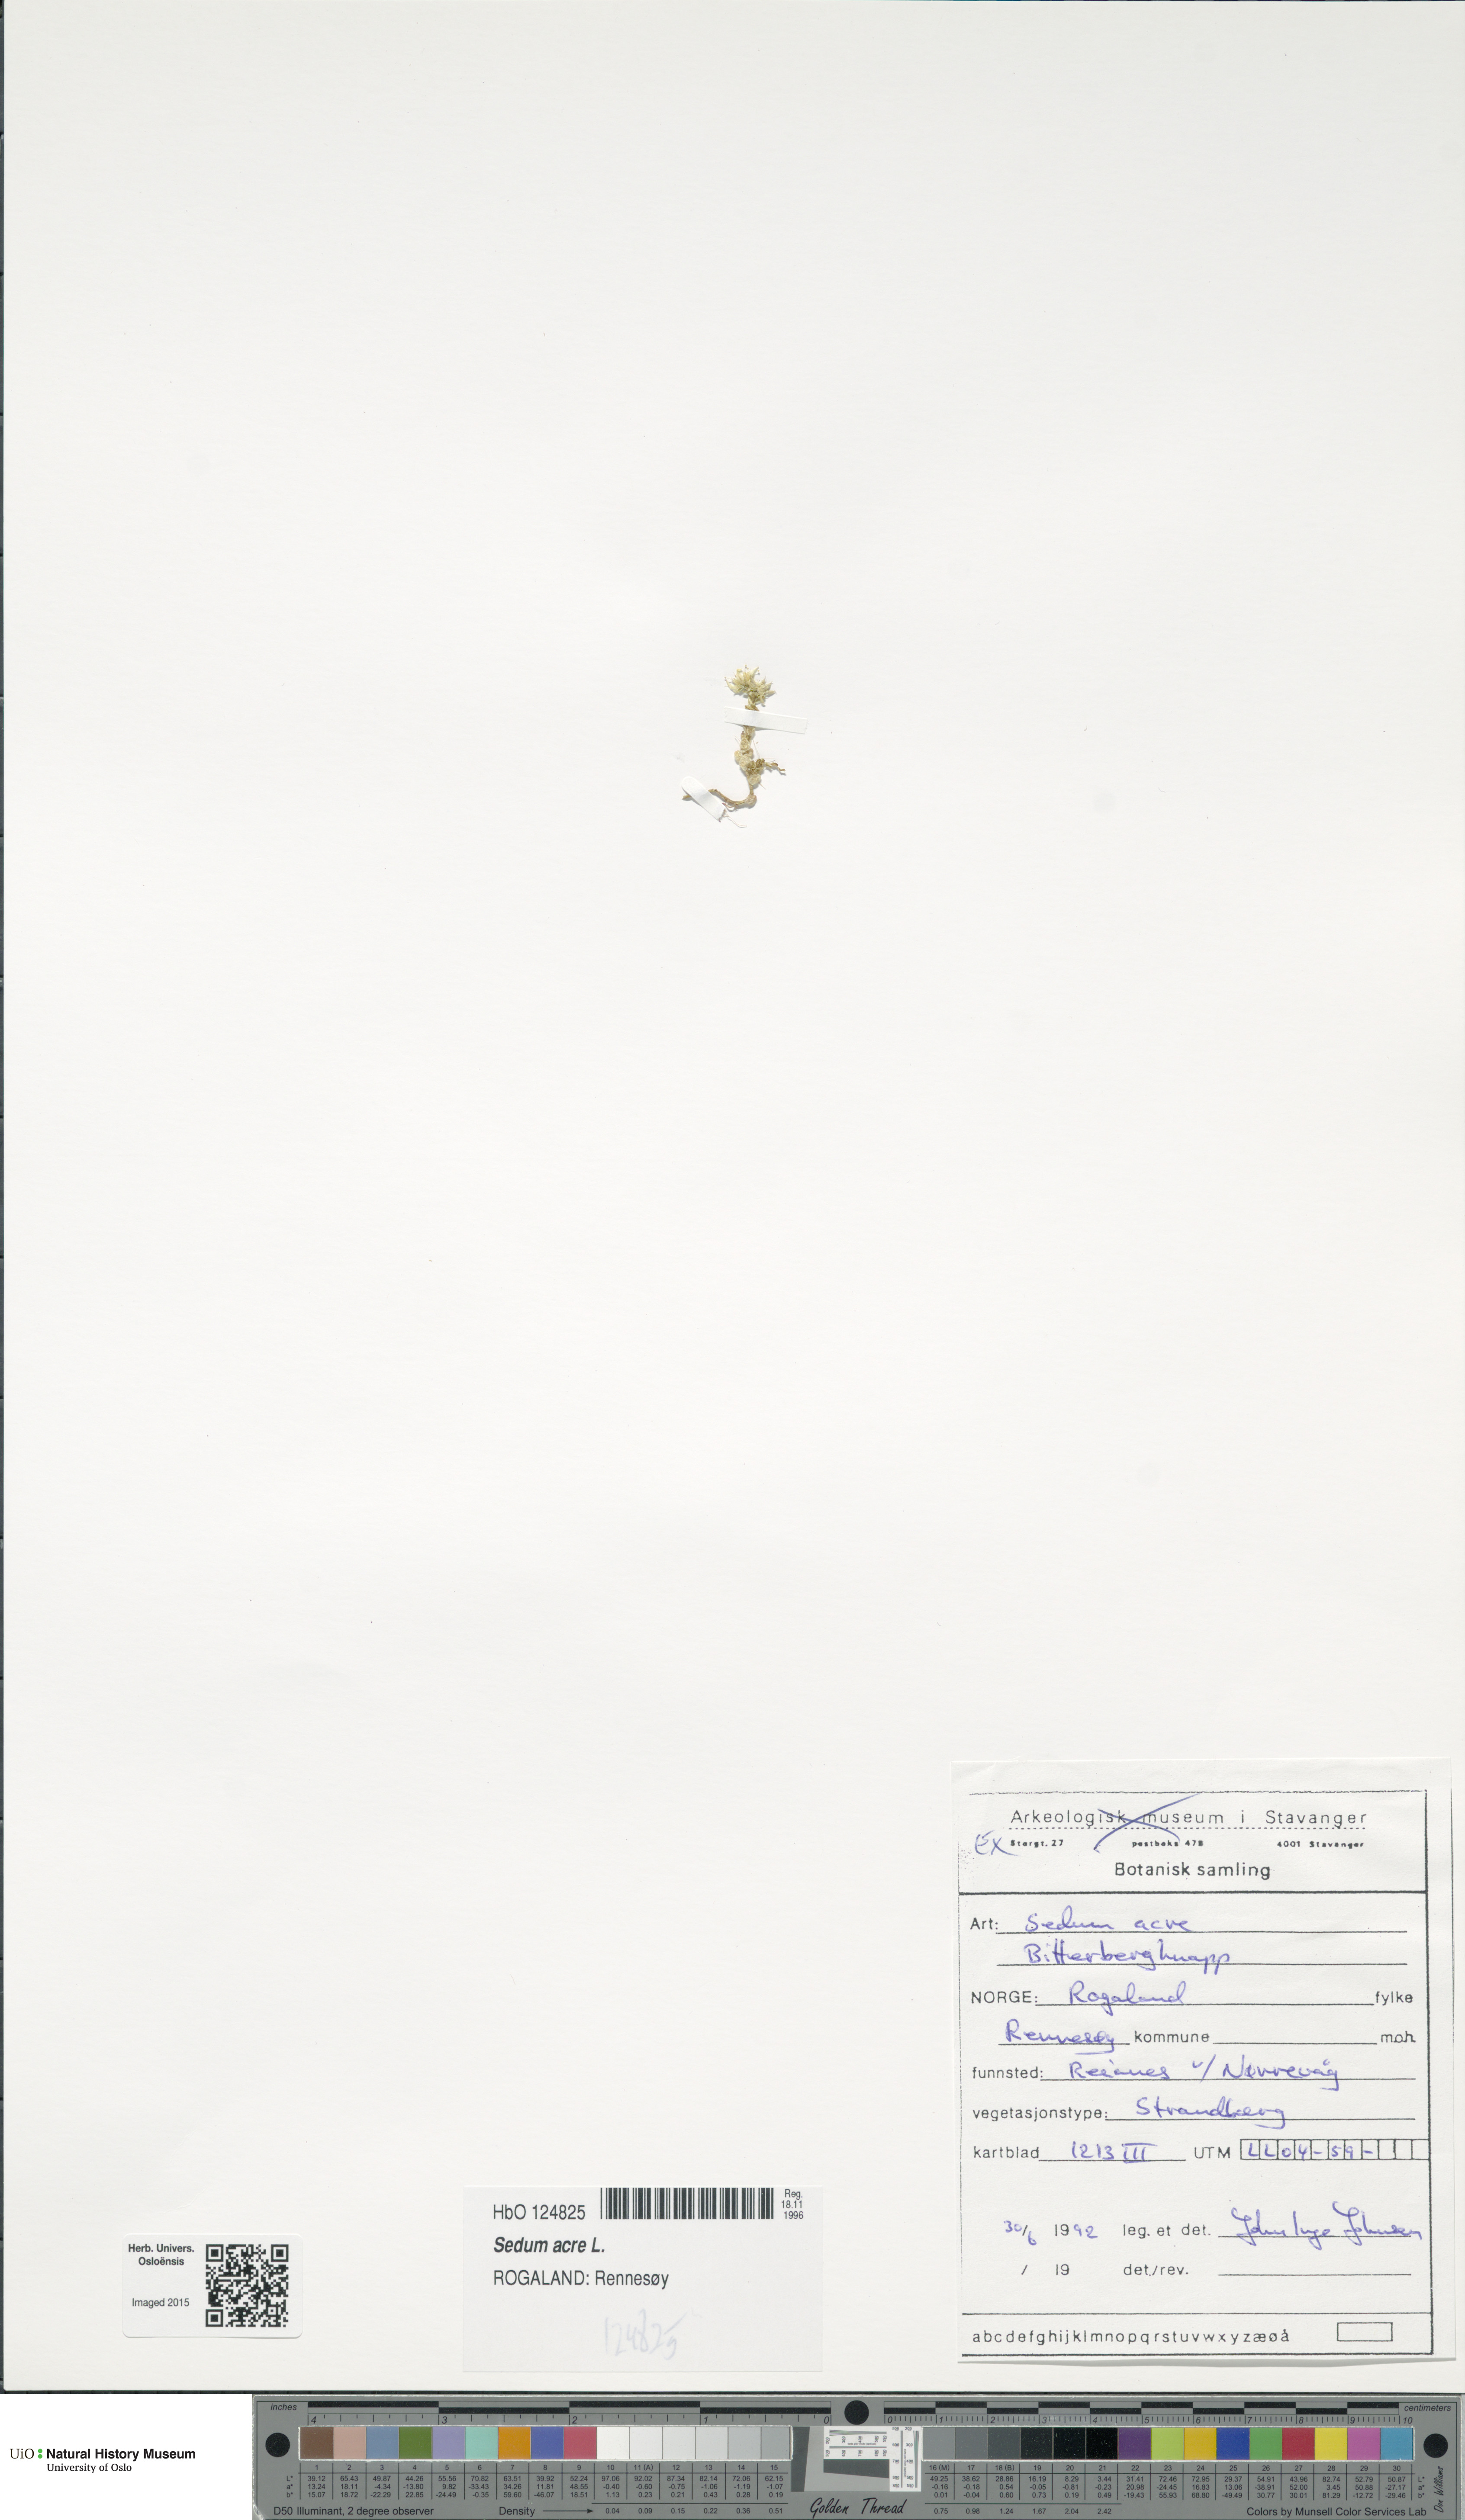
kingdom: Plantae
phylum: Tracheophyta
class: Magnoliopsida
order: Saxifragales
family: Crassulaceae
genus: Sedum
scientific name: Sedum acre
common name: Biting stonecrop
